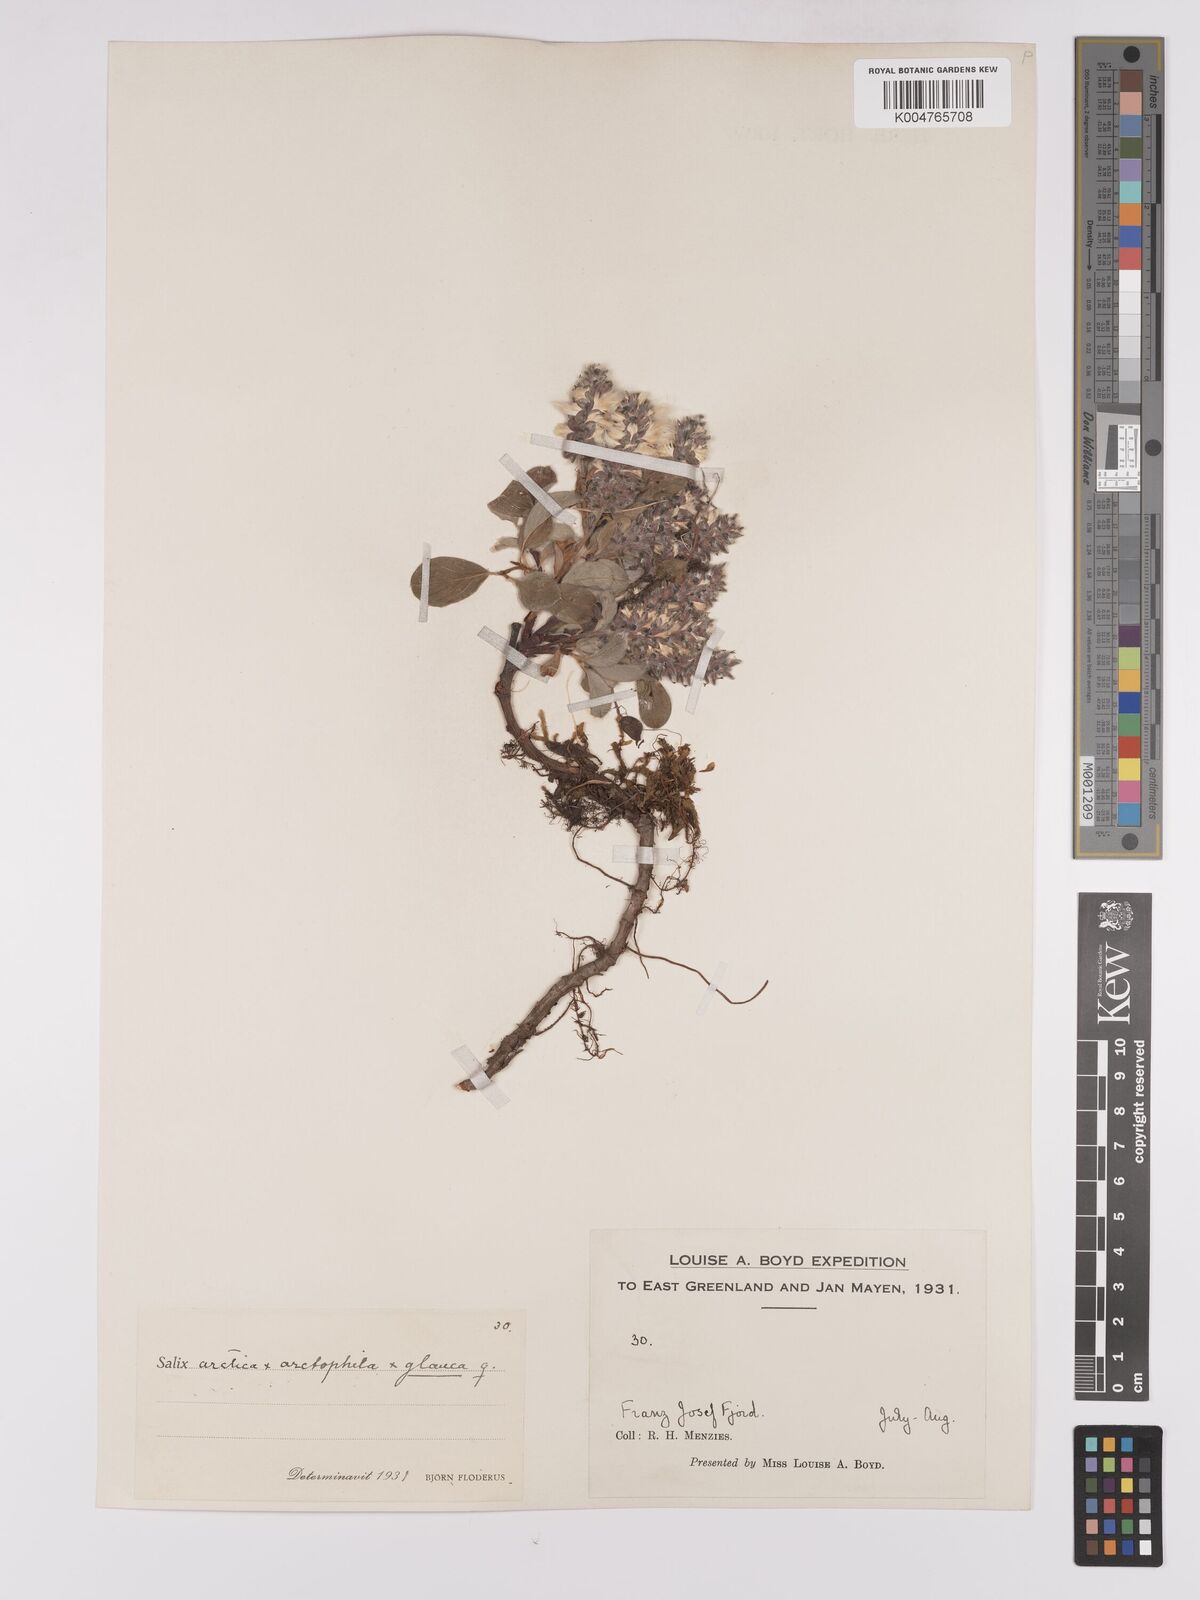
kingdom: Plantae
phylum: Tracheophyta
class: Magnoliopsida
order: Malpighiales
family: Salicaceae
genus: Salix
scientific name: Salix arctophila
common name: Greenland willow
